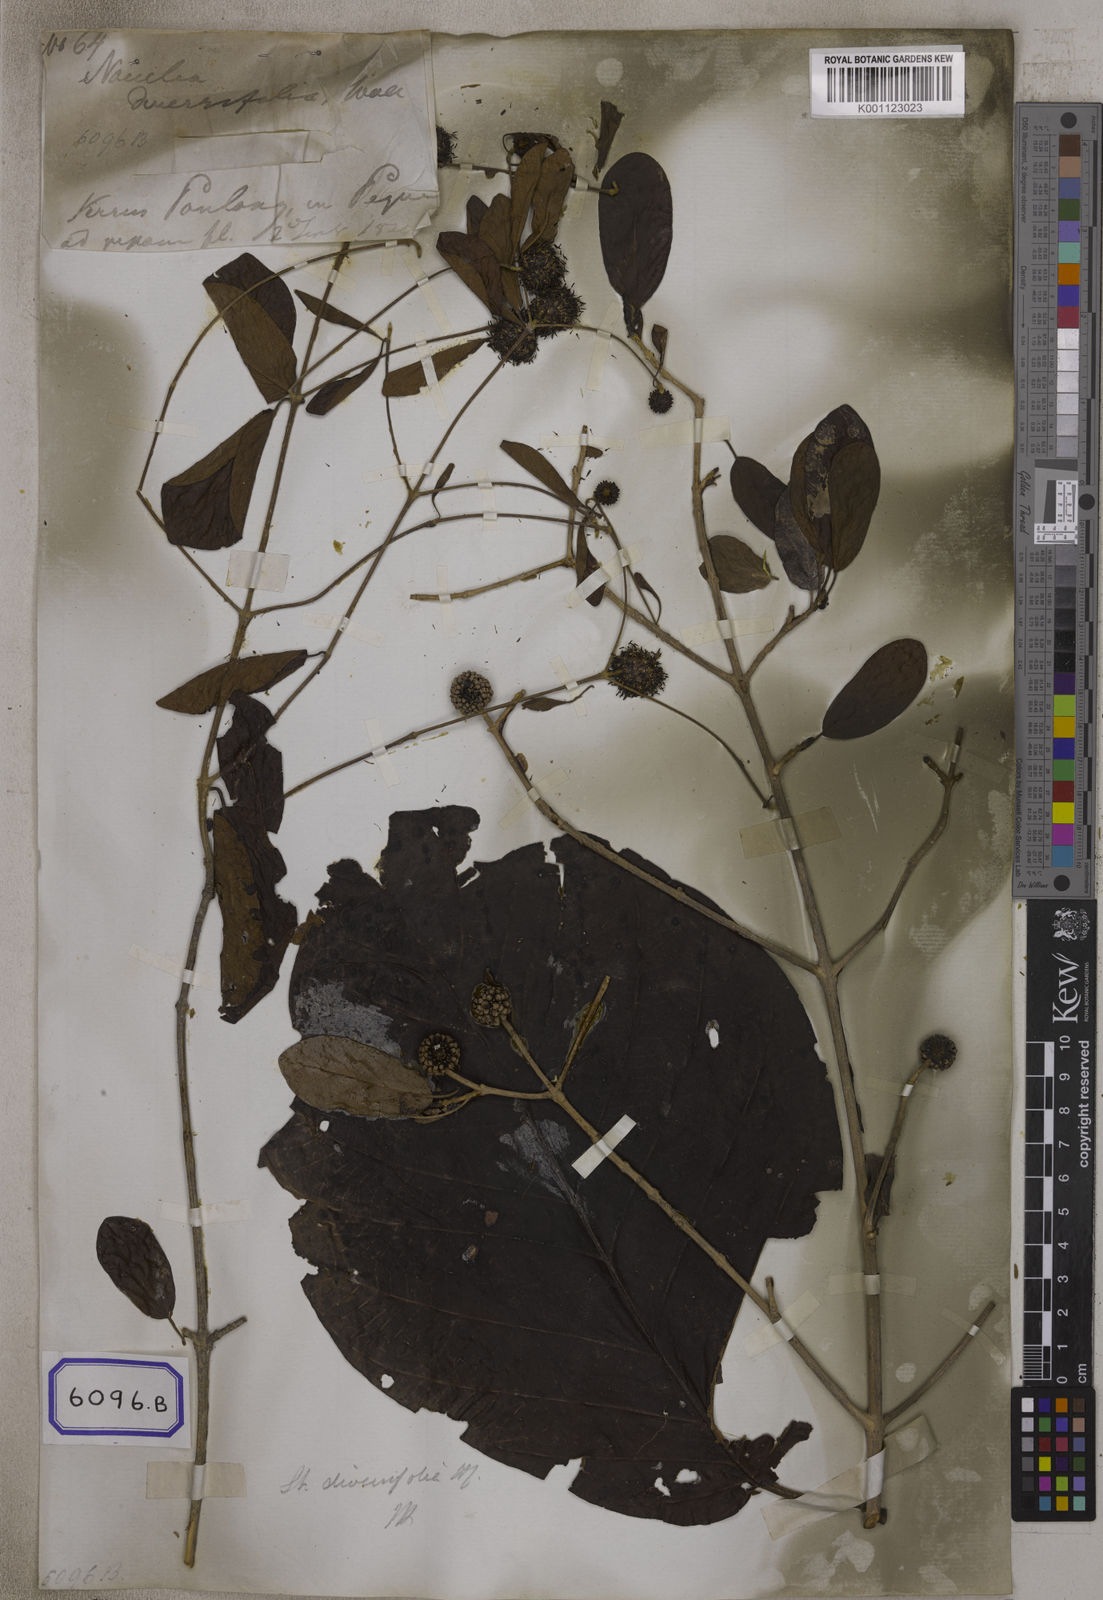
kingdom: Plantae
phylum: Tracheophyta
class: Magnoliopsida
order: Gentianales
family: Rubiaceae
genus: Nauclea
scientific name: Nauclea
